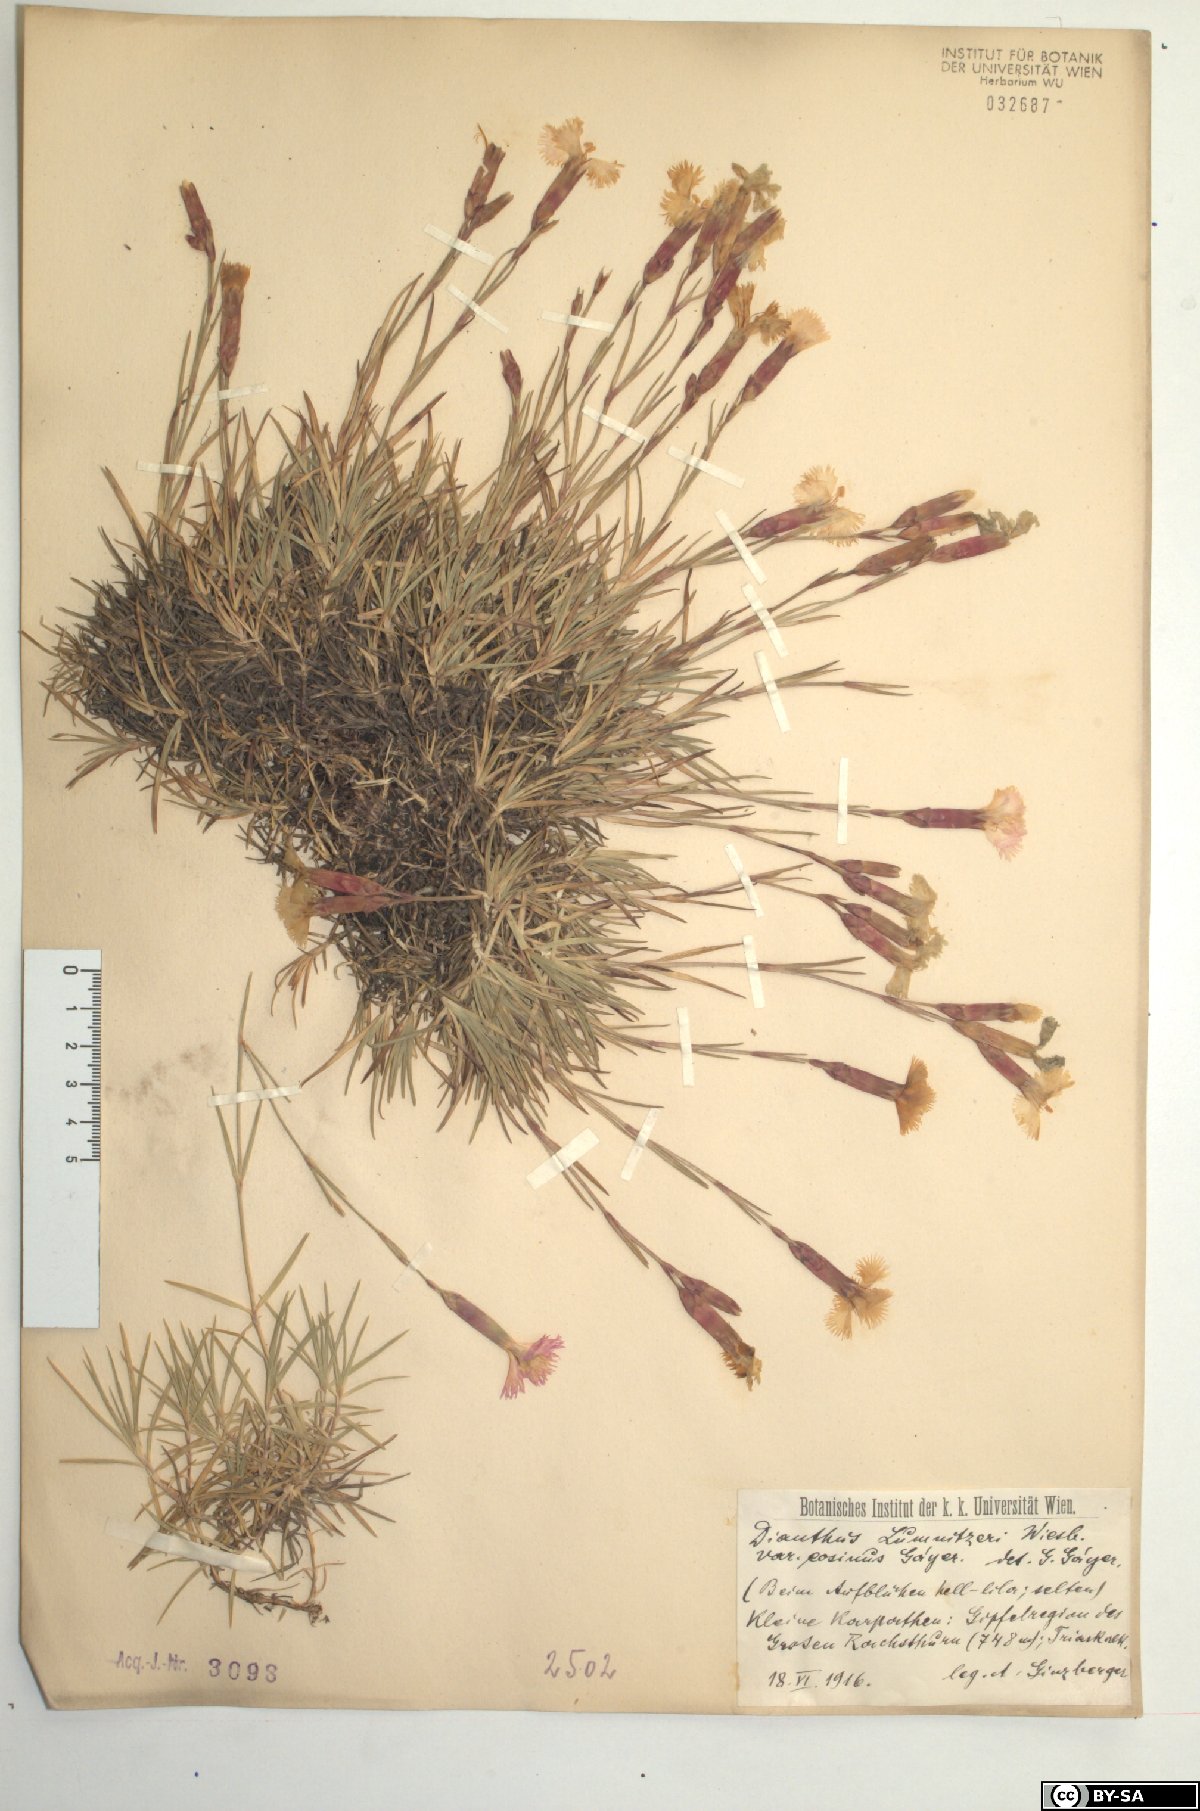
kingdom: Plantae
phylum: Tracheophyta
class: Magnoliopsida
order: Caryophyllales
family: Caryophyllaceae
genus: Dianthus
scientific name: Dianthus praecox
